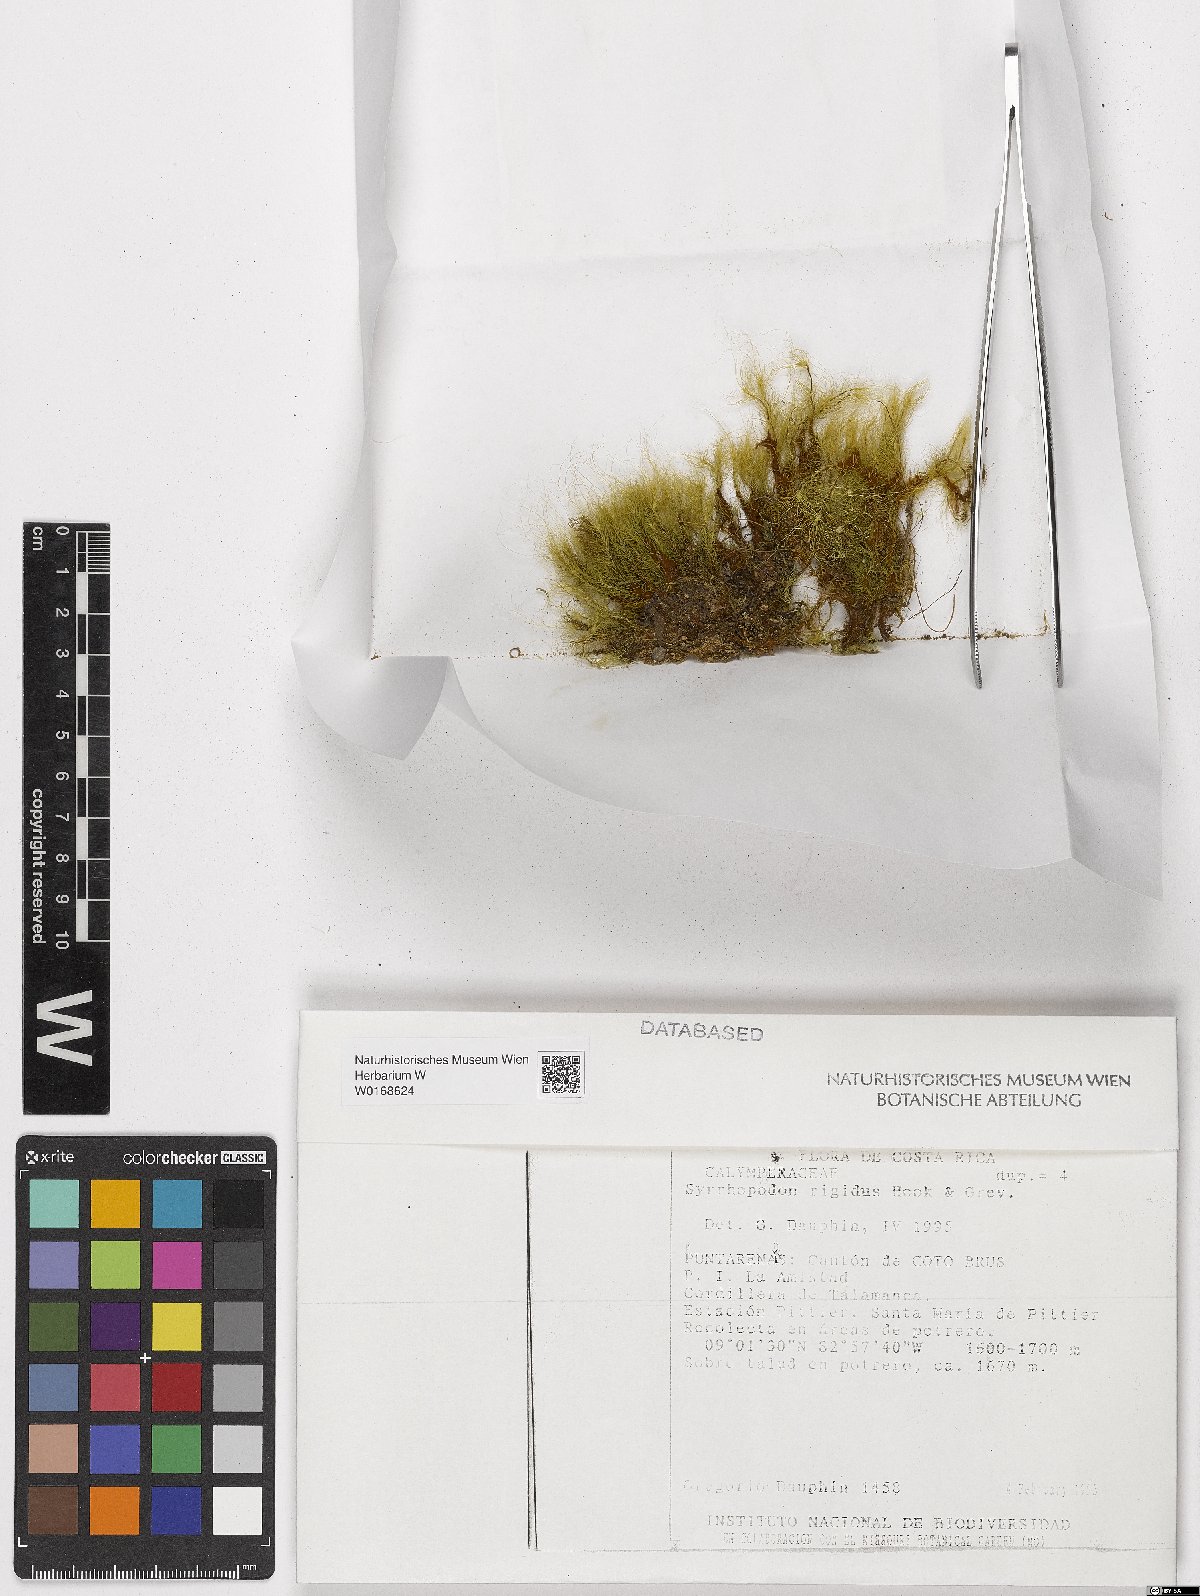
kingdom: Plantae
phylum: Bryophyta
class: Bryopsida
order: Dicranales
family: Calymperaceae
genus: Syrrhopodon
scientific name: Syrrhopodon rigidus
